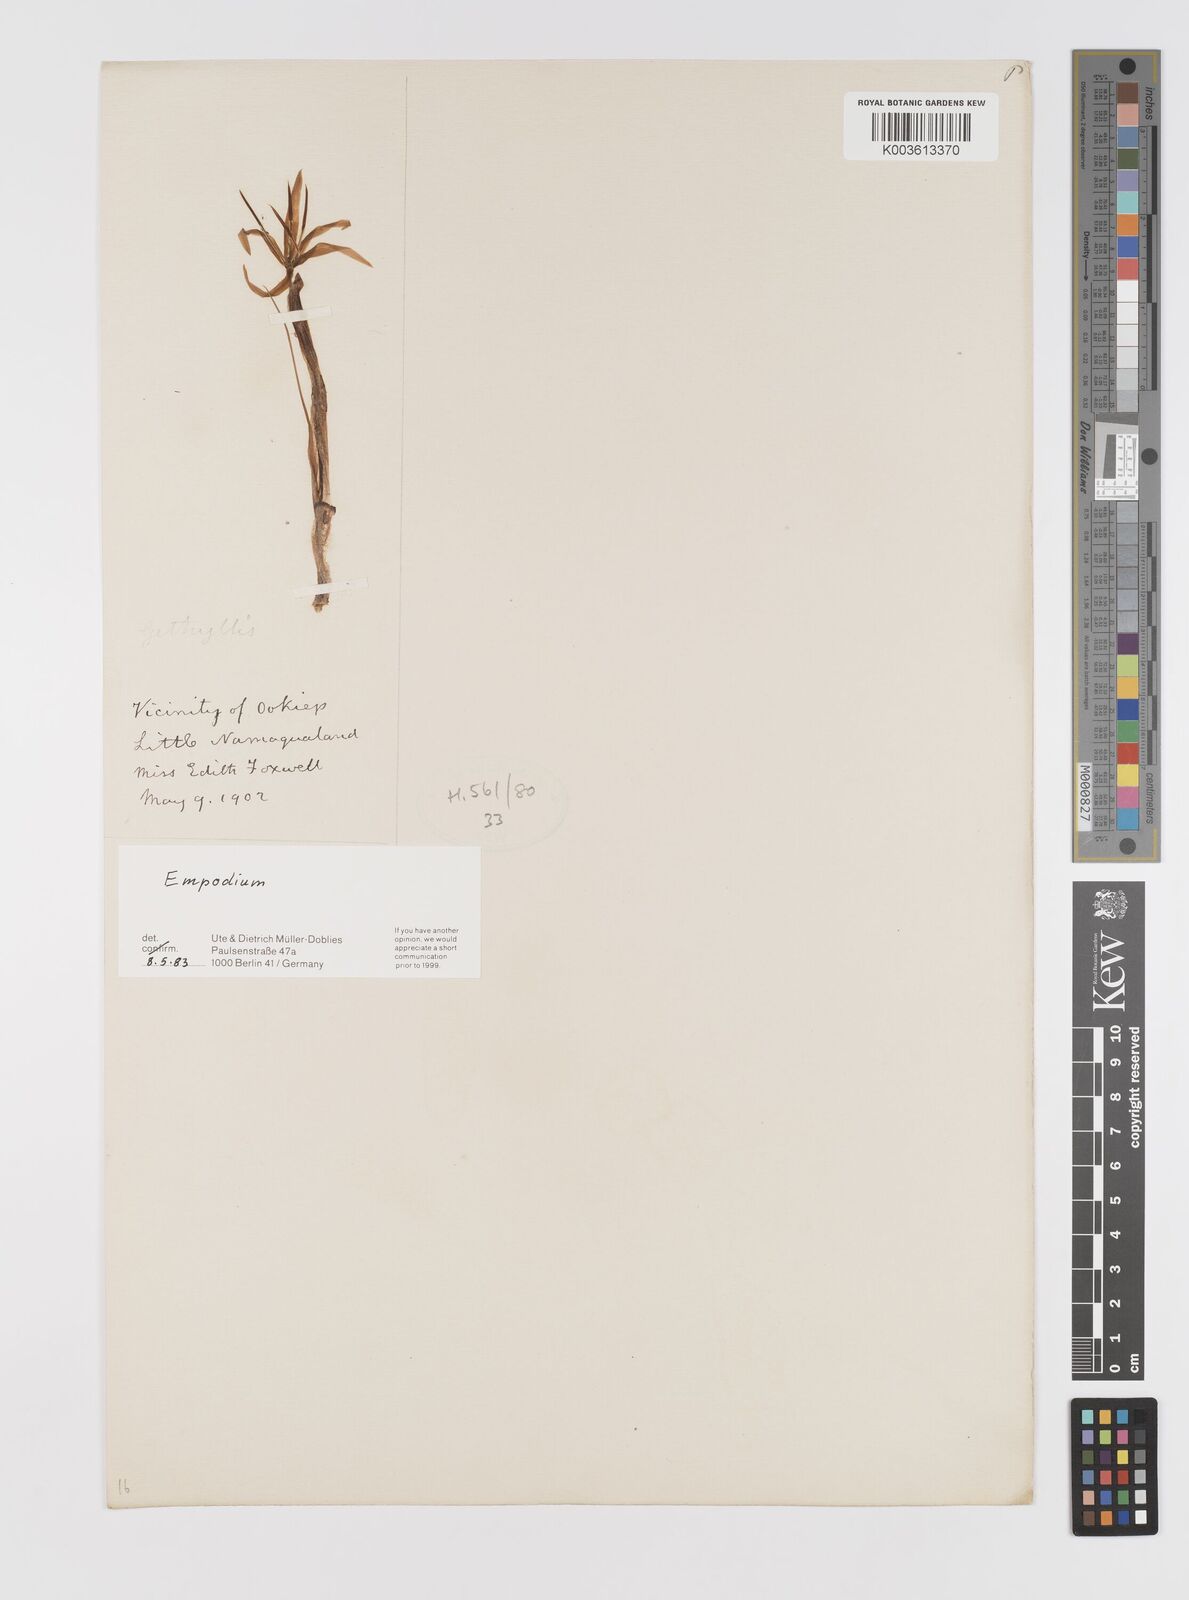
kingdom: Plantae
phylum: Tracheophyta
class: Liliopsida
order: Asparagales
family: Hypoxidaceae
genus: Empodium
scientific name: Empodium
